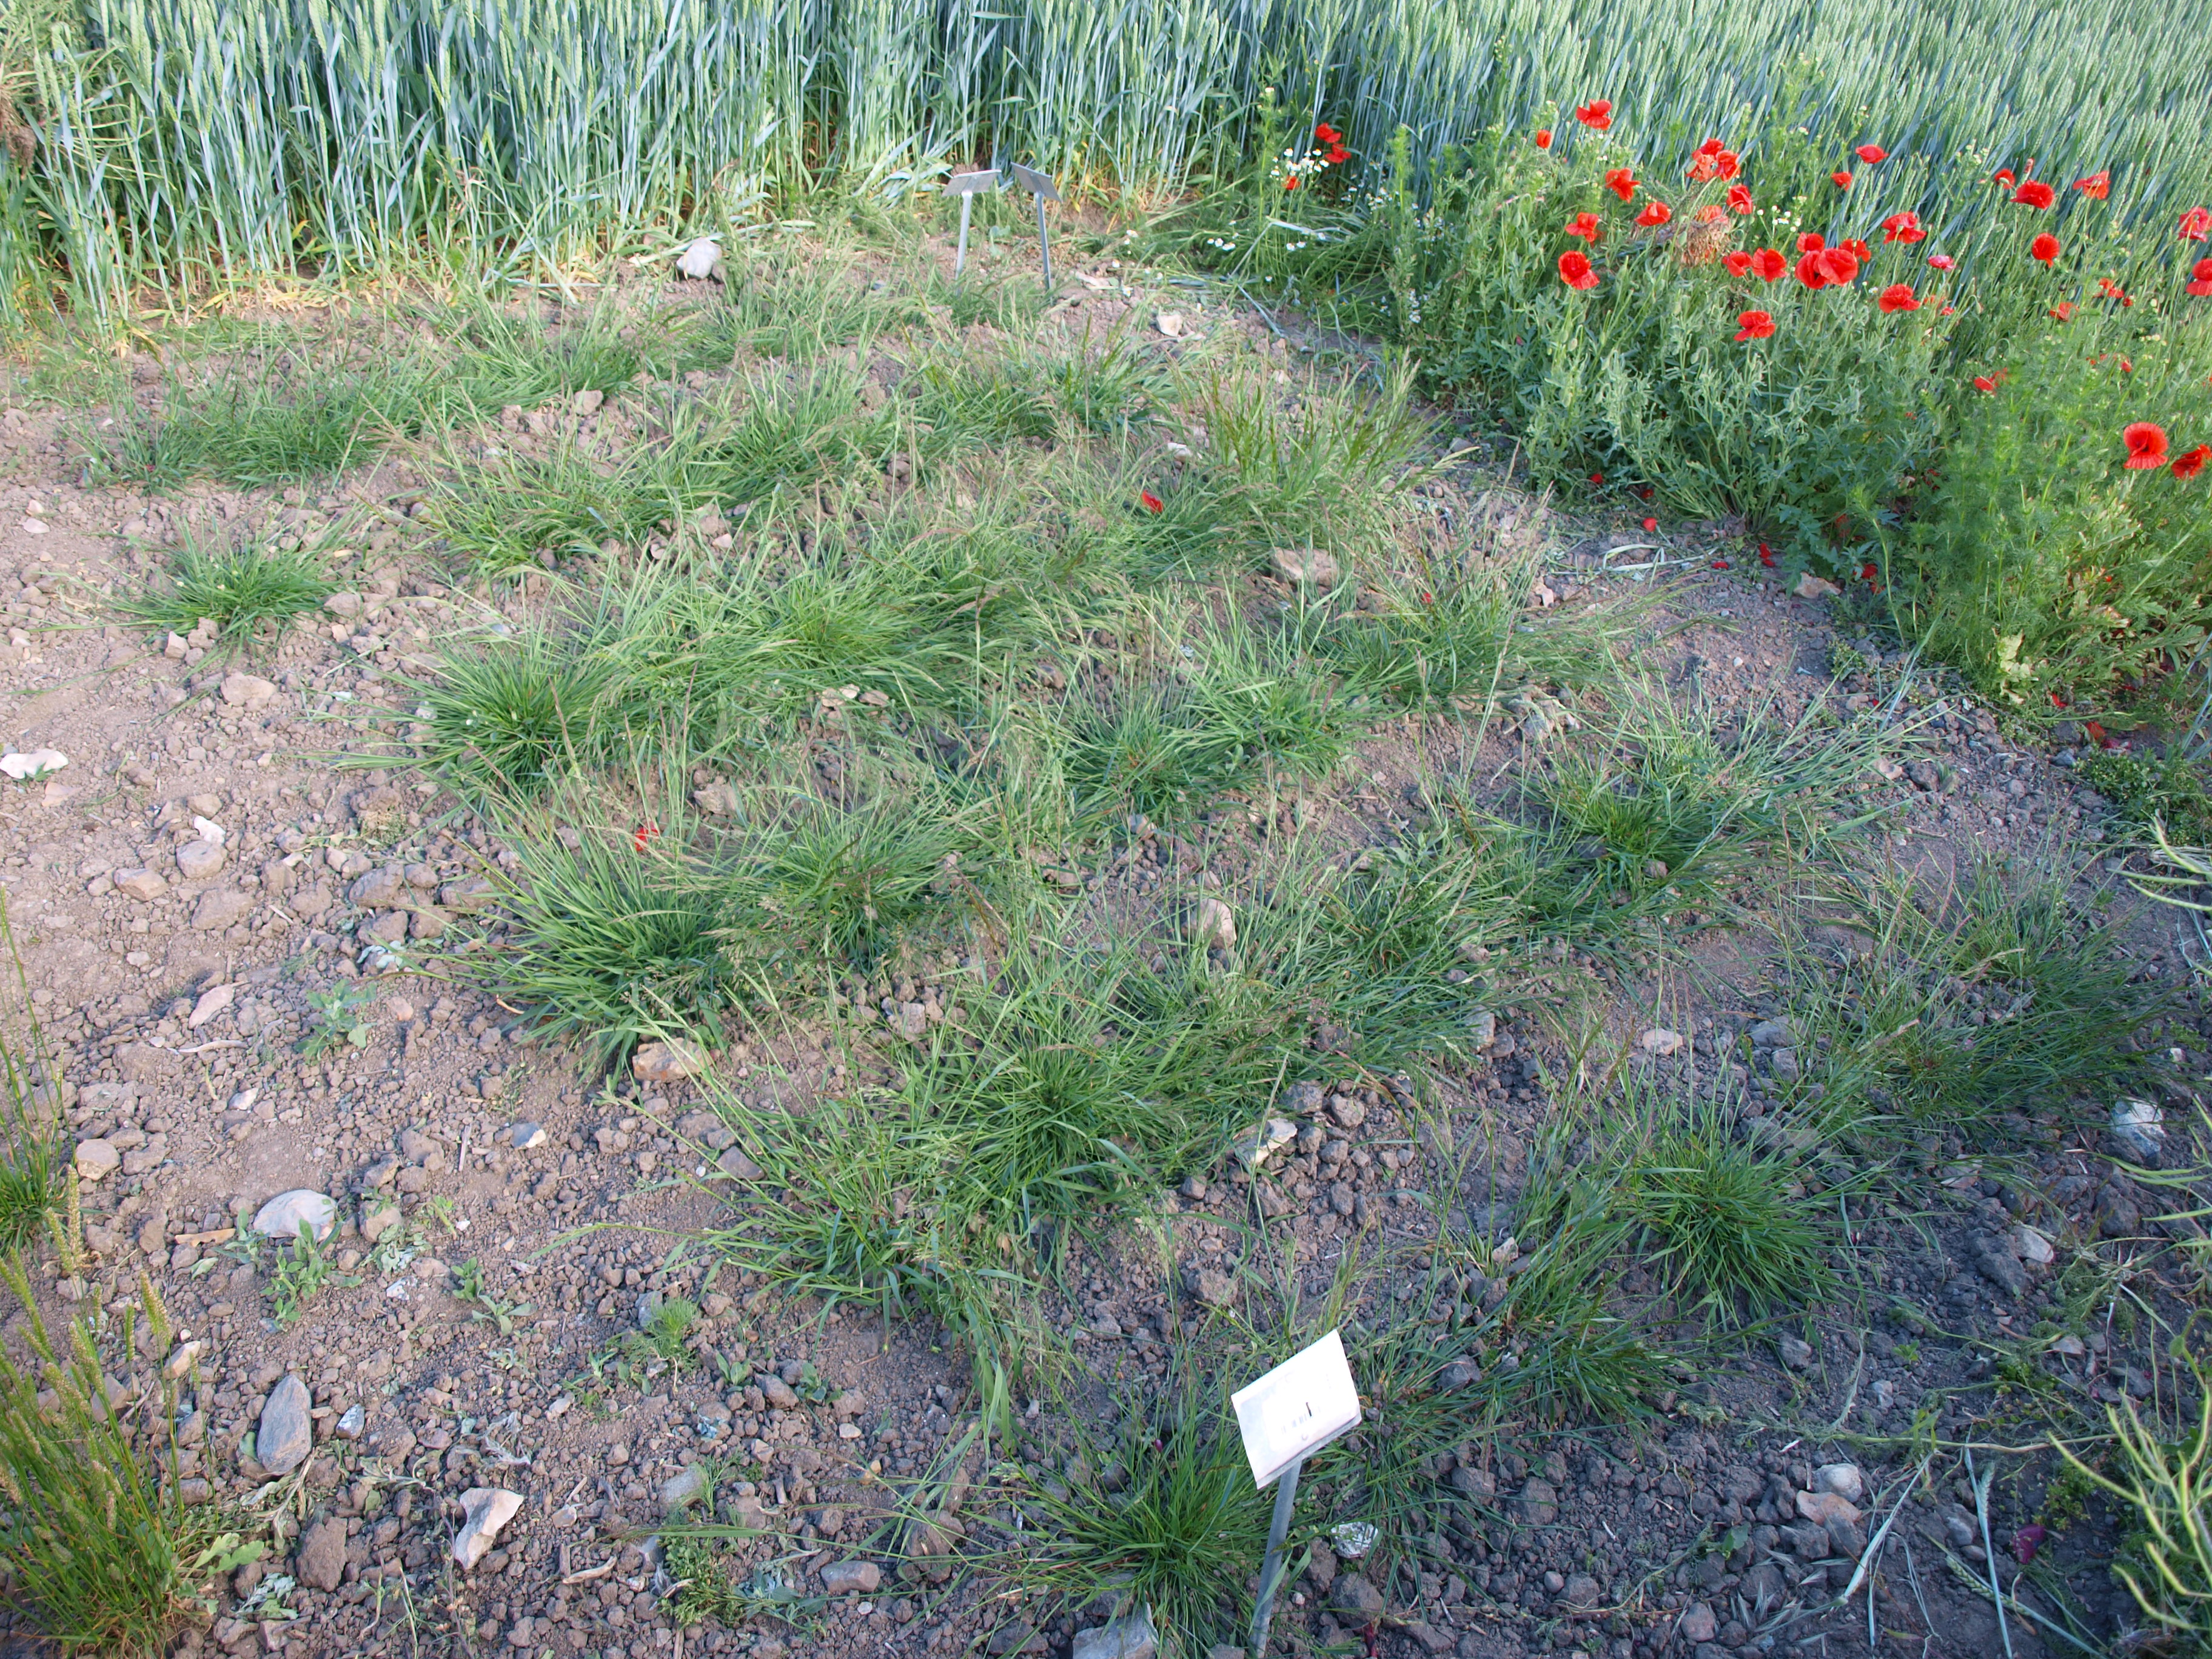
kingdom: Plantae
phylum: Tracheophyta
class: Liliopsida
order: Poales
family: Poaceae
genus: Agrostis
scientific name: Agrostis capillaris
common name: Colonial bentgrass
